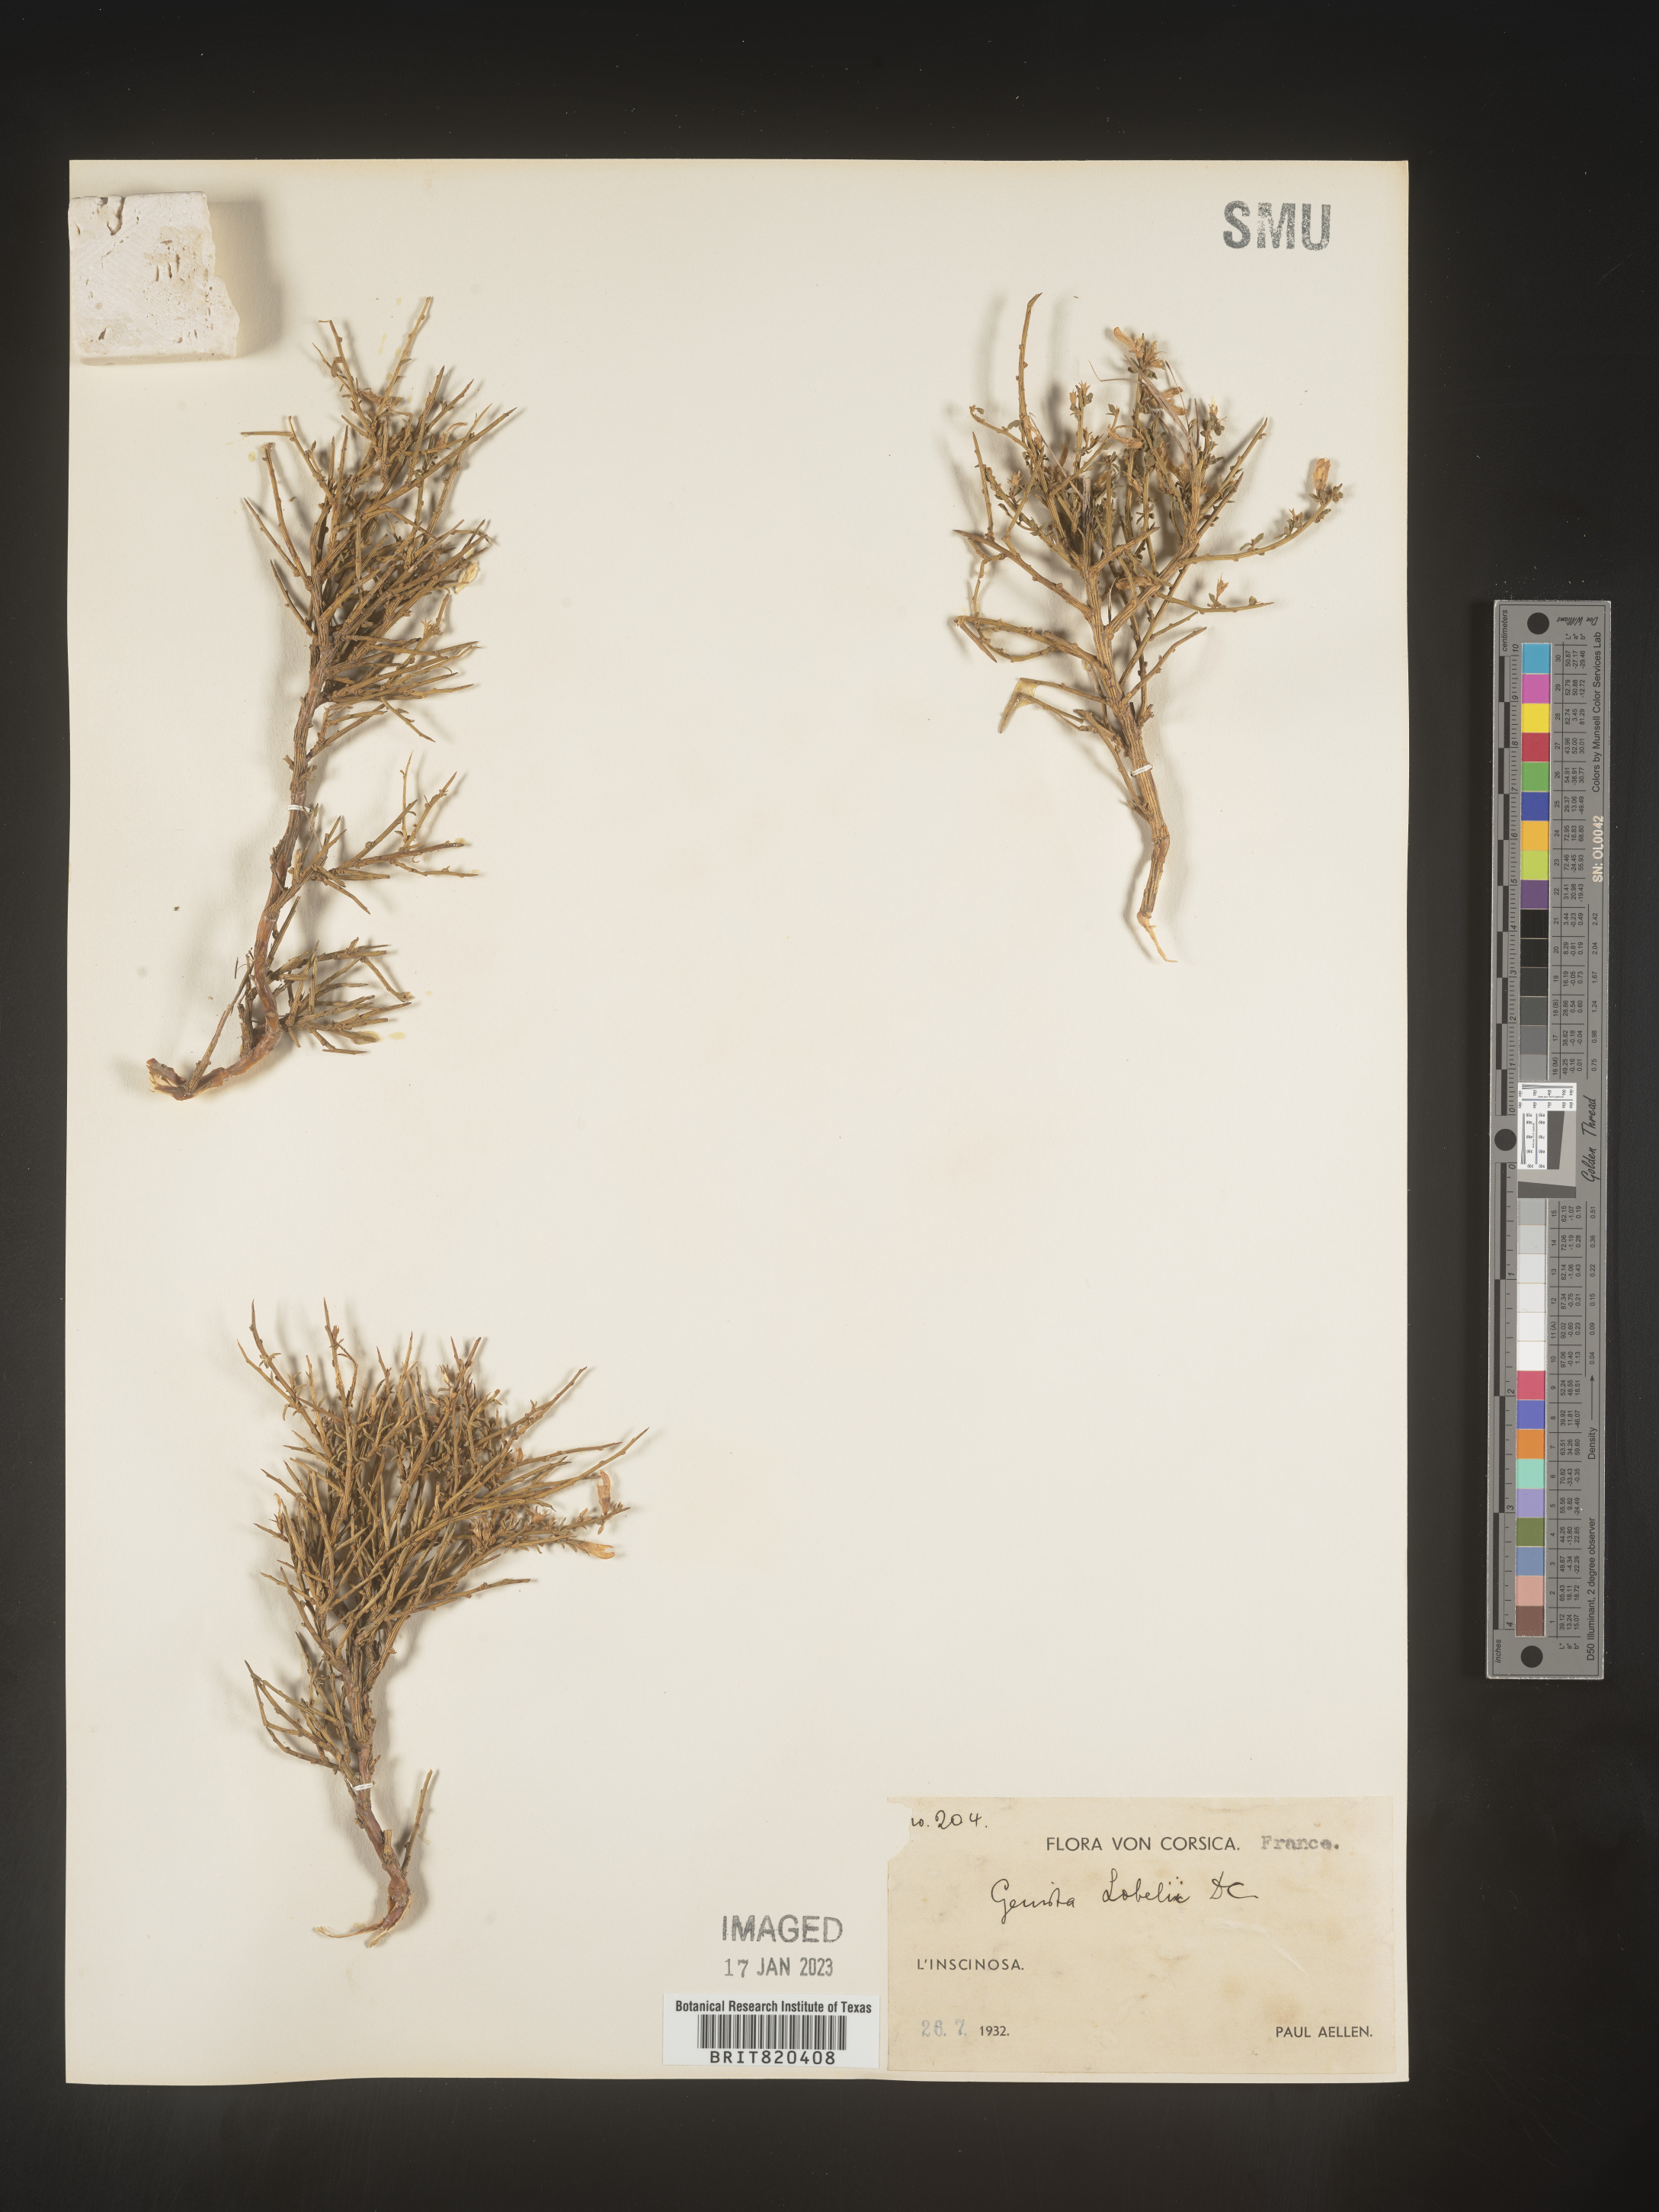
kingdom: Plantae
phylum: Tracheophyta
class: Magnoliopsida
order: Fabales
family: Fabaceae
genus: Genista
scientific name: Genista
